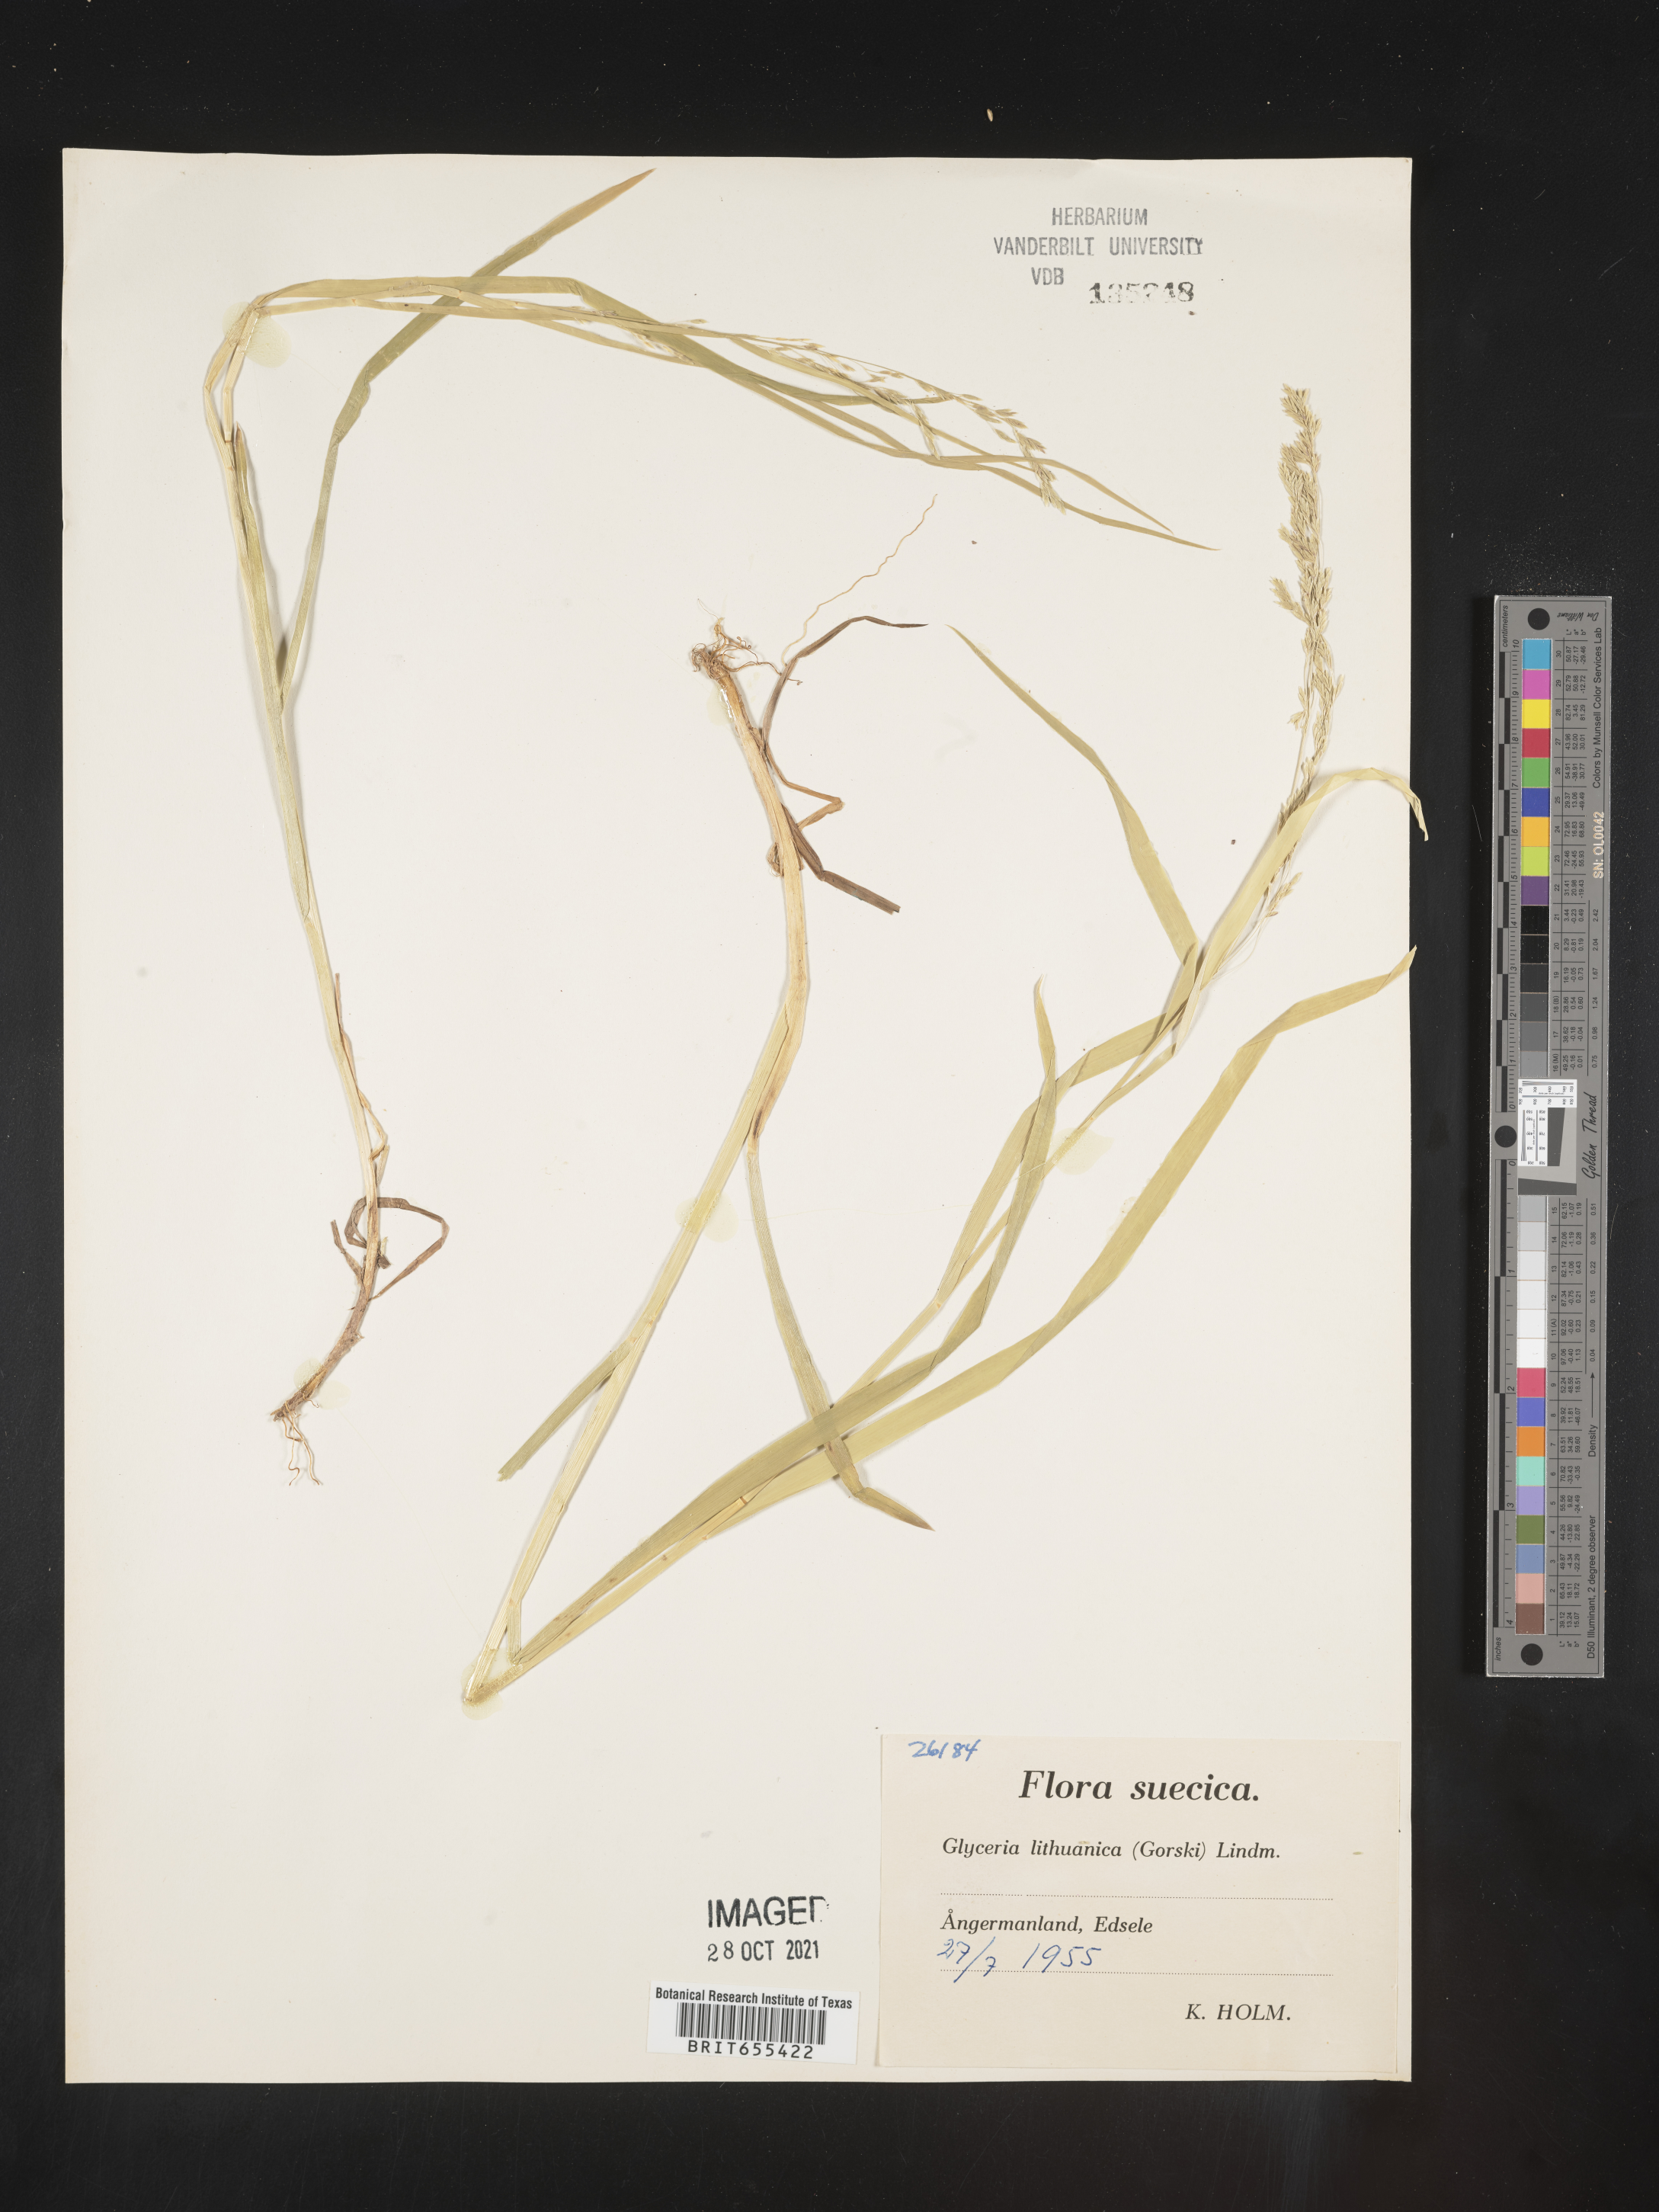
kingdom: Plantae
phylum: Tracheophyta
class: Liliopsida
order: Poales
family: Poaceae
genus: Glyceria
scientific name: Glyceria
